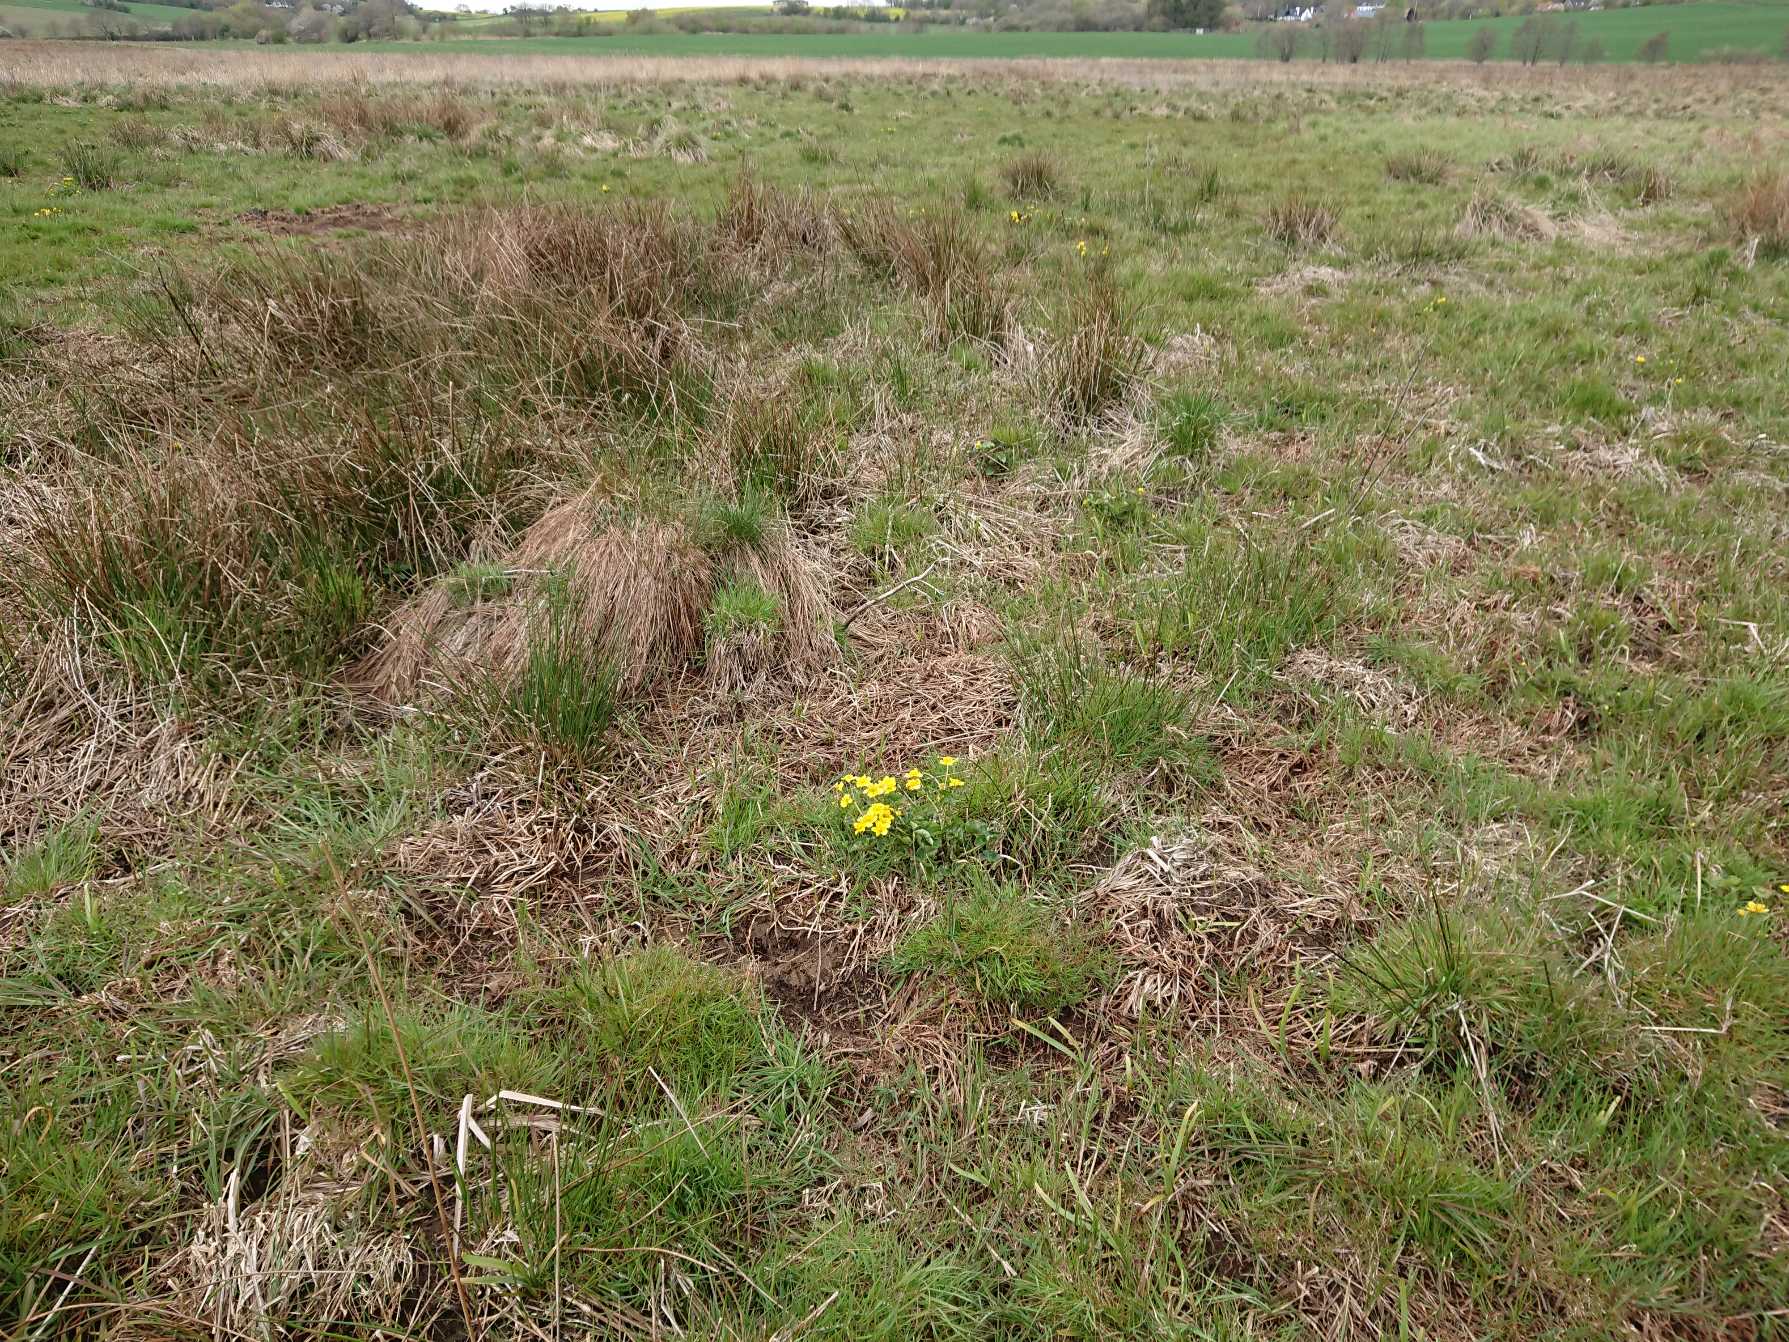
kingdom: Plantae
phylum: Tracheophyta
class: Magnoliopsida
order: Ranunculales
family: Ranunculaceae
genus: Caltha
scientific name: Caltha palustris
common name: Eng-kabbeleje
